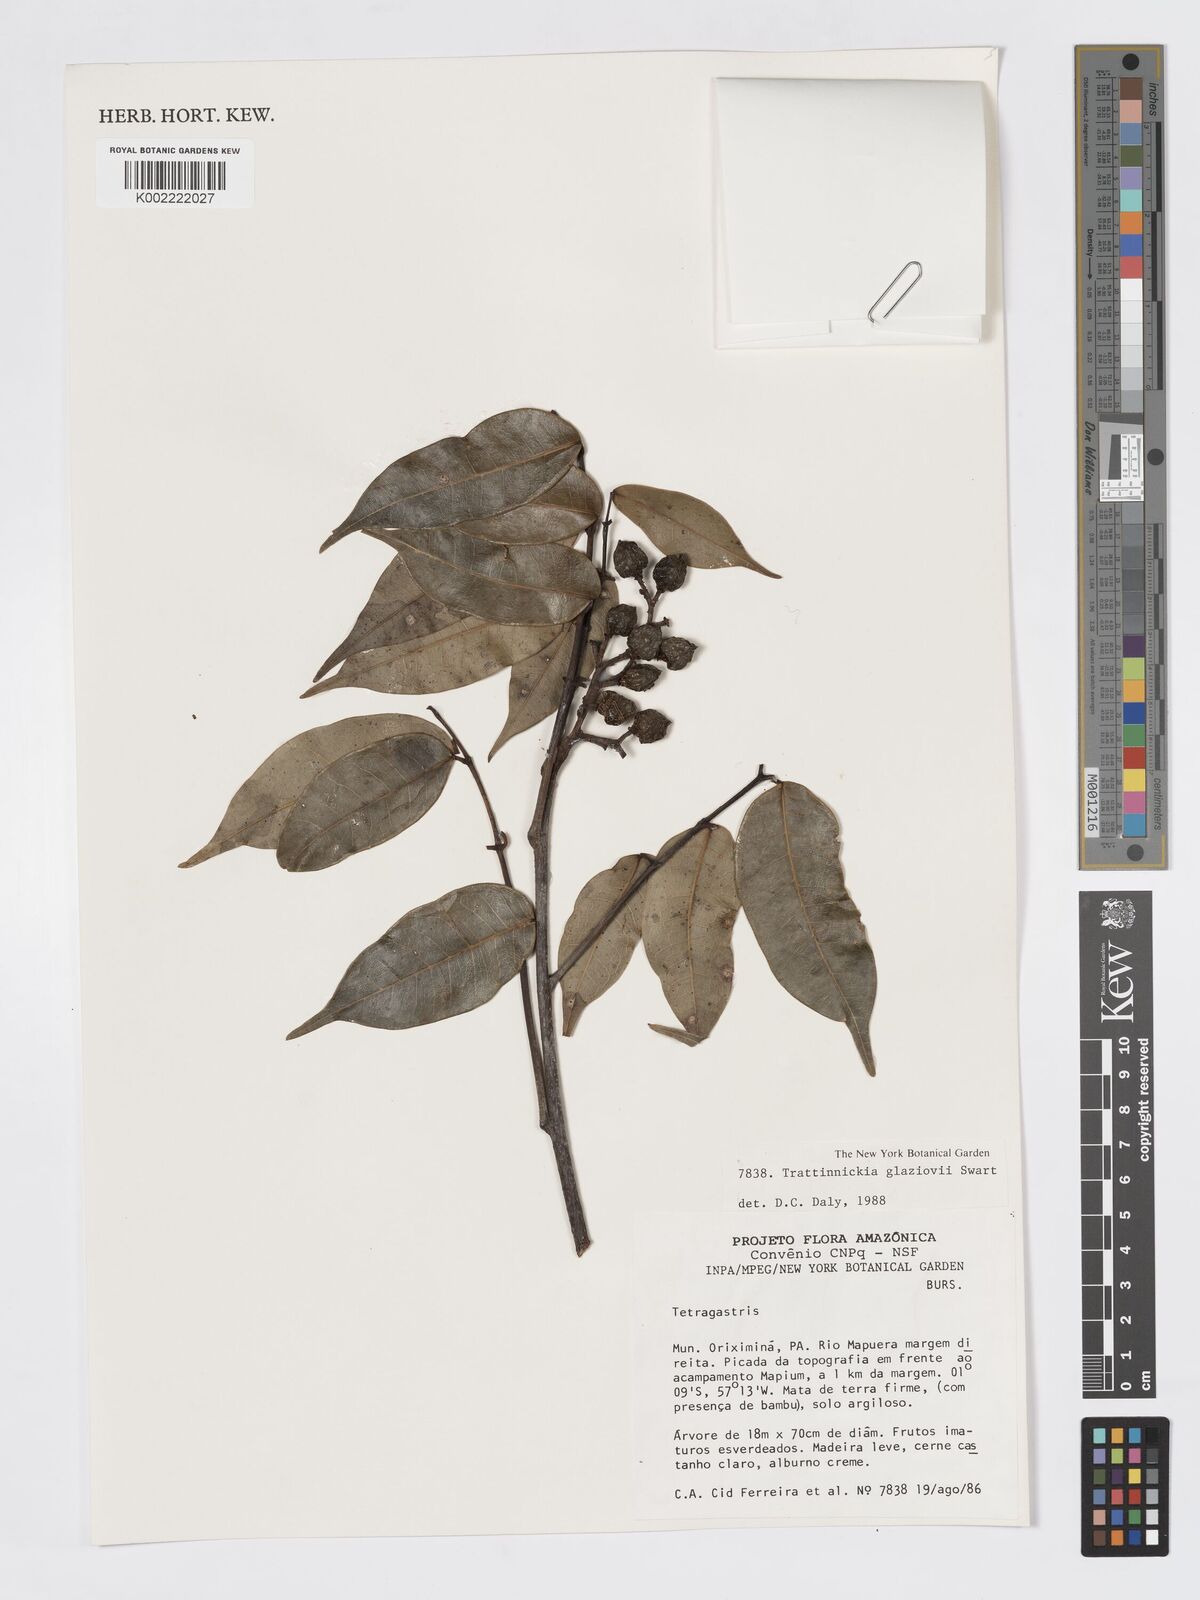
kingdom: Plantae
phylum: Tracheophyta
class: Magnoliopsida
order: Sapindales
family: Burseraceae
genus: Trattinnickia
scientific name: Trattinnickia glaziovii
